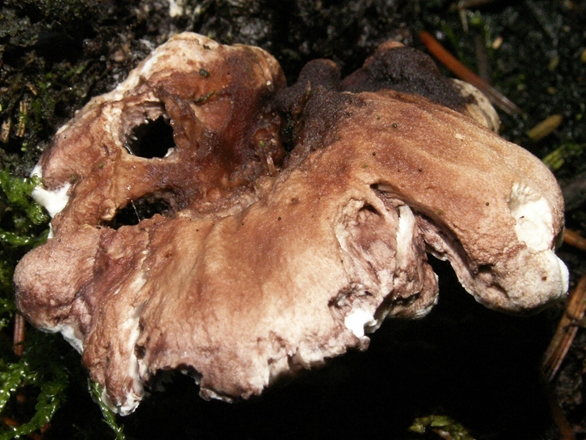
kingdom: Fungi
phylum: Basidiomycota
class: Agaricomycetes
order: Thelephorales
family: Thelephoraceae
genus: Phellodon
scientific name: Phellodon violascens
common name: violetbrun duftpigsvamp
